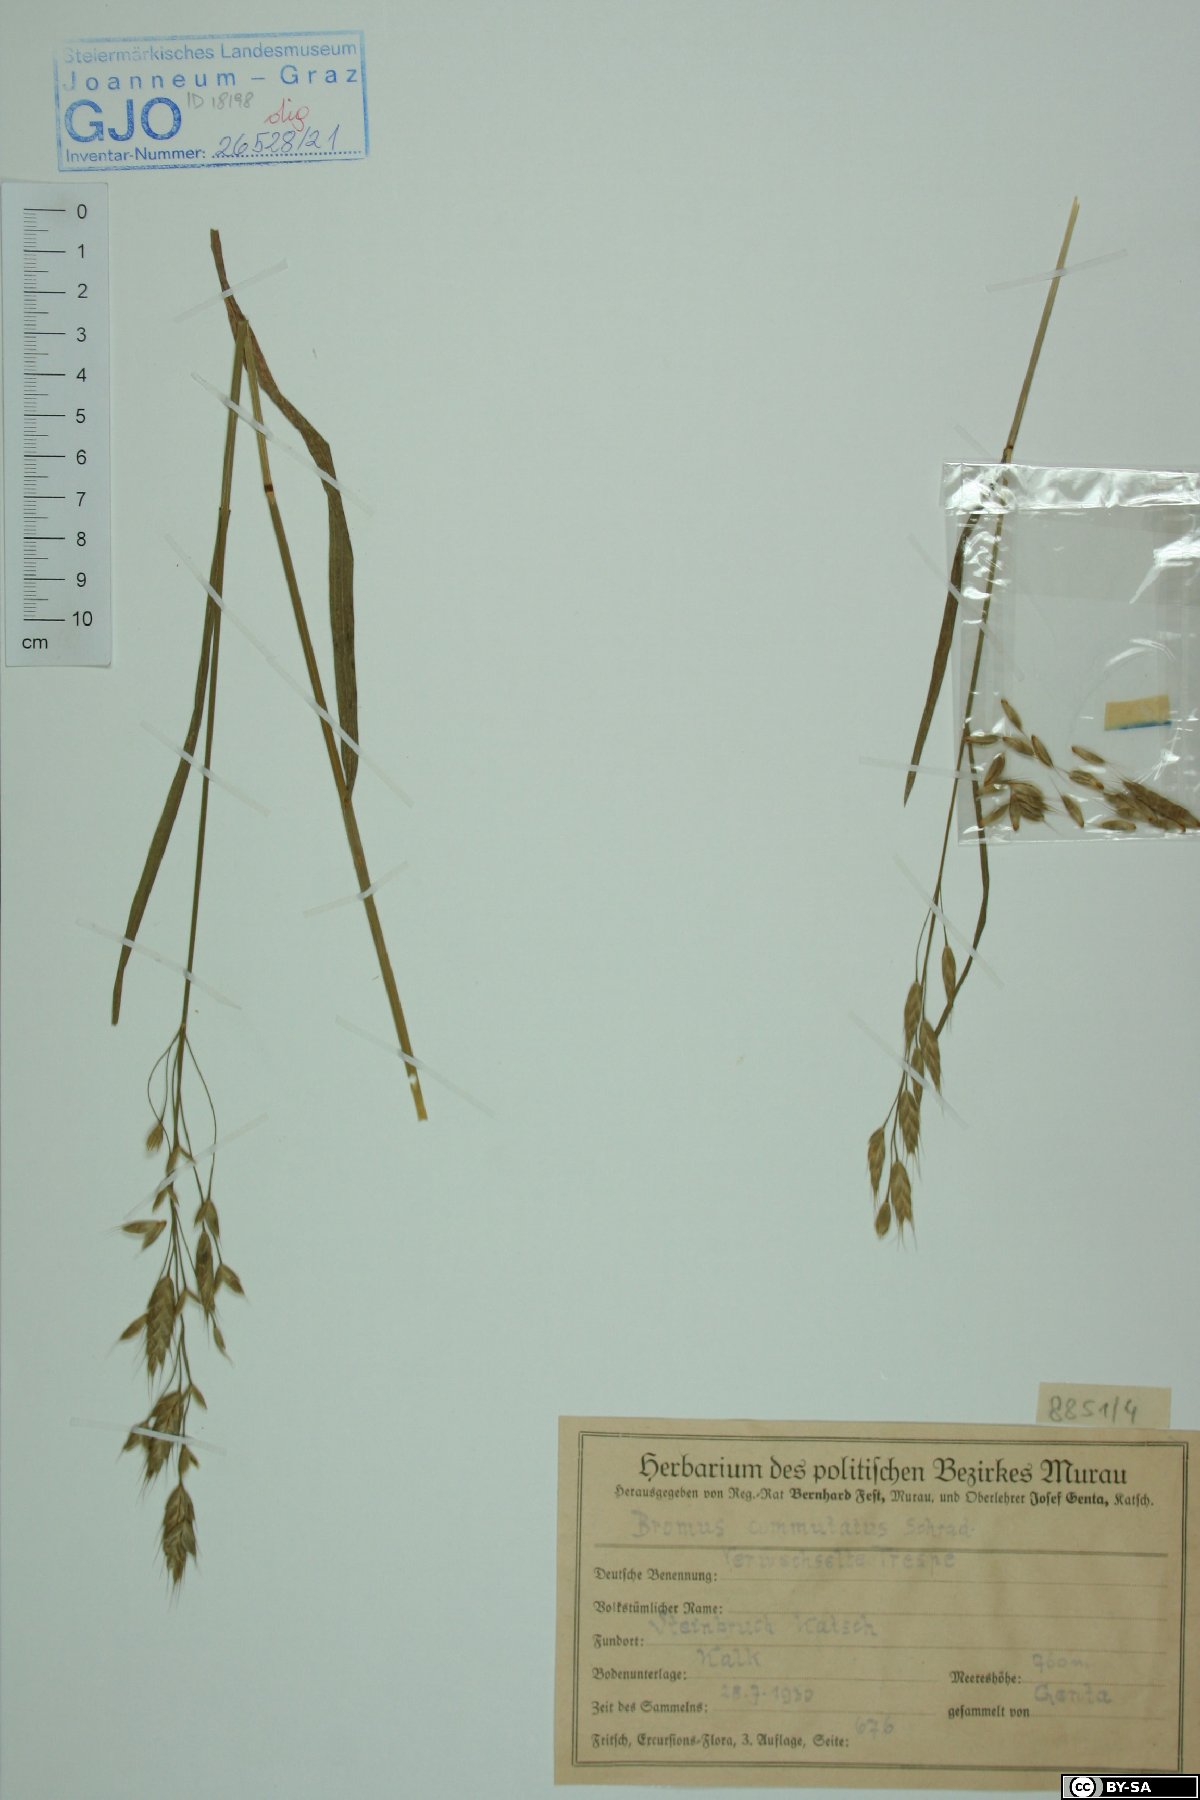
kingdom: Plantae
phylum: Tracheophyta
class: Liliopsida
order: Poales
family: Poaceae
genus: Bromus
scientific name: Bromus commutatus
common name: Meadow brome
